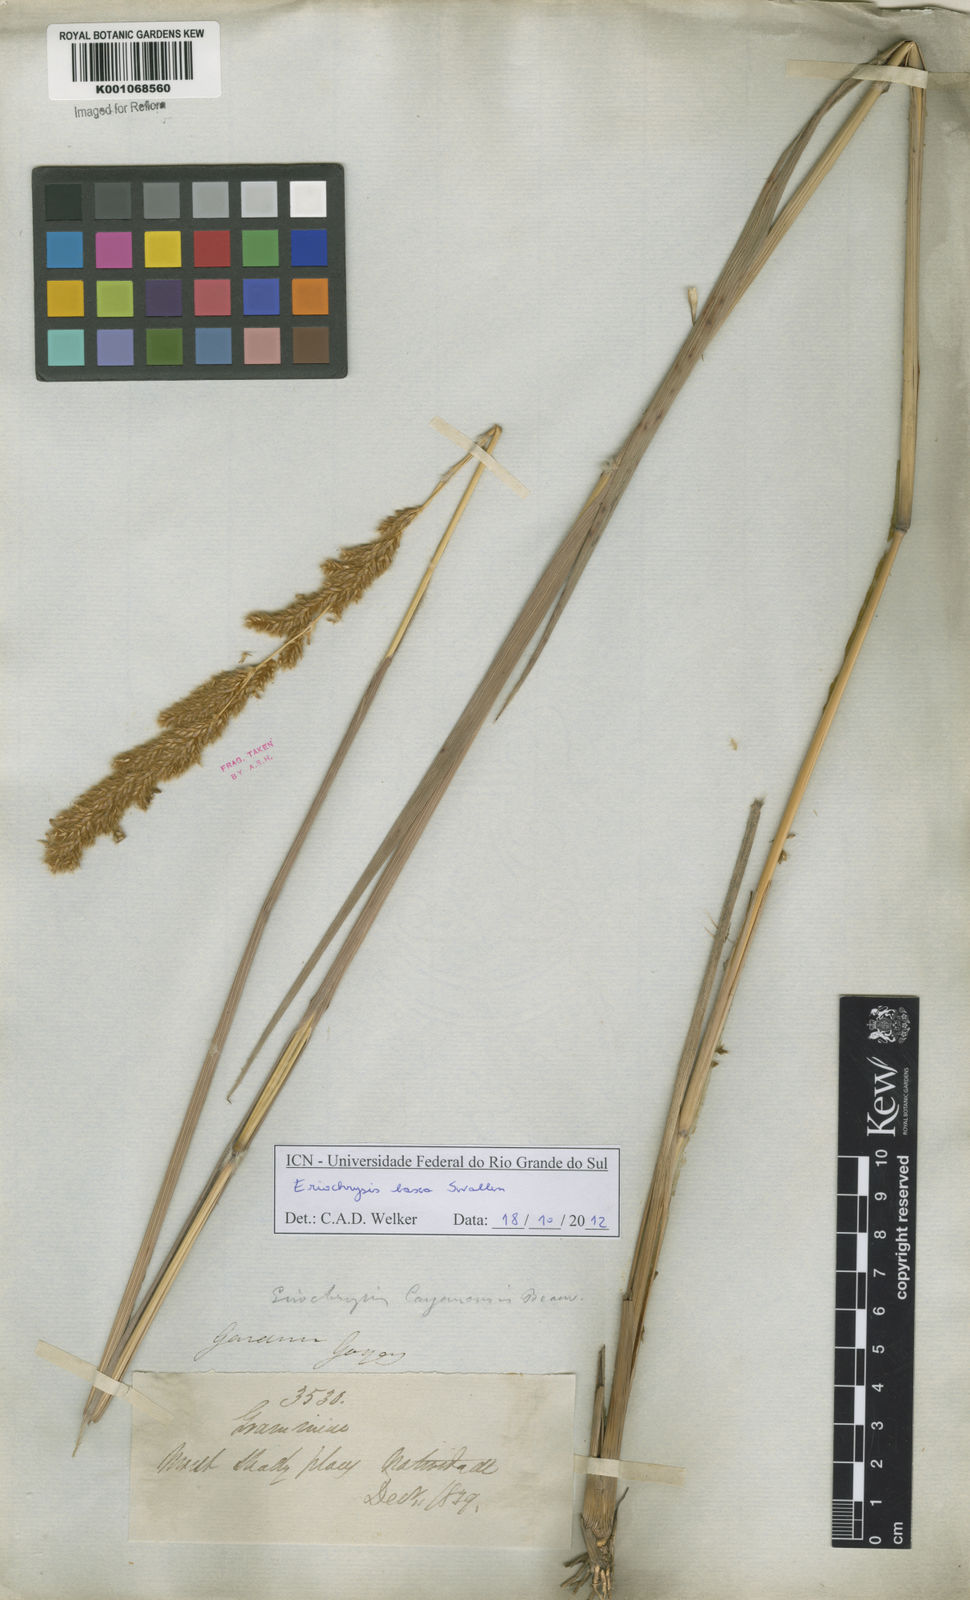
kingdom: Plantae
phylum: Tracheophyta
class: Liliopsida
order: Poales
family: Poaceae
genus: Eriochrysis
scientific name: Eriochrysis laxa
